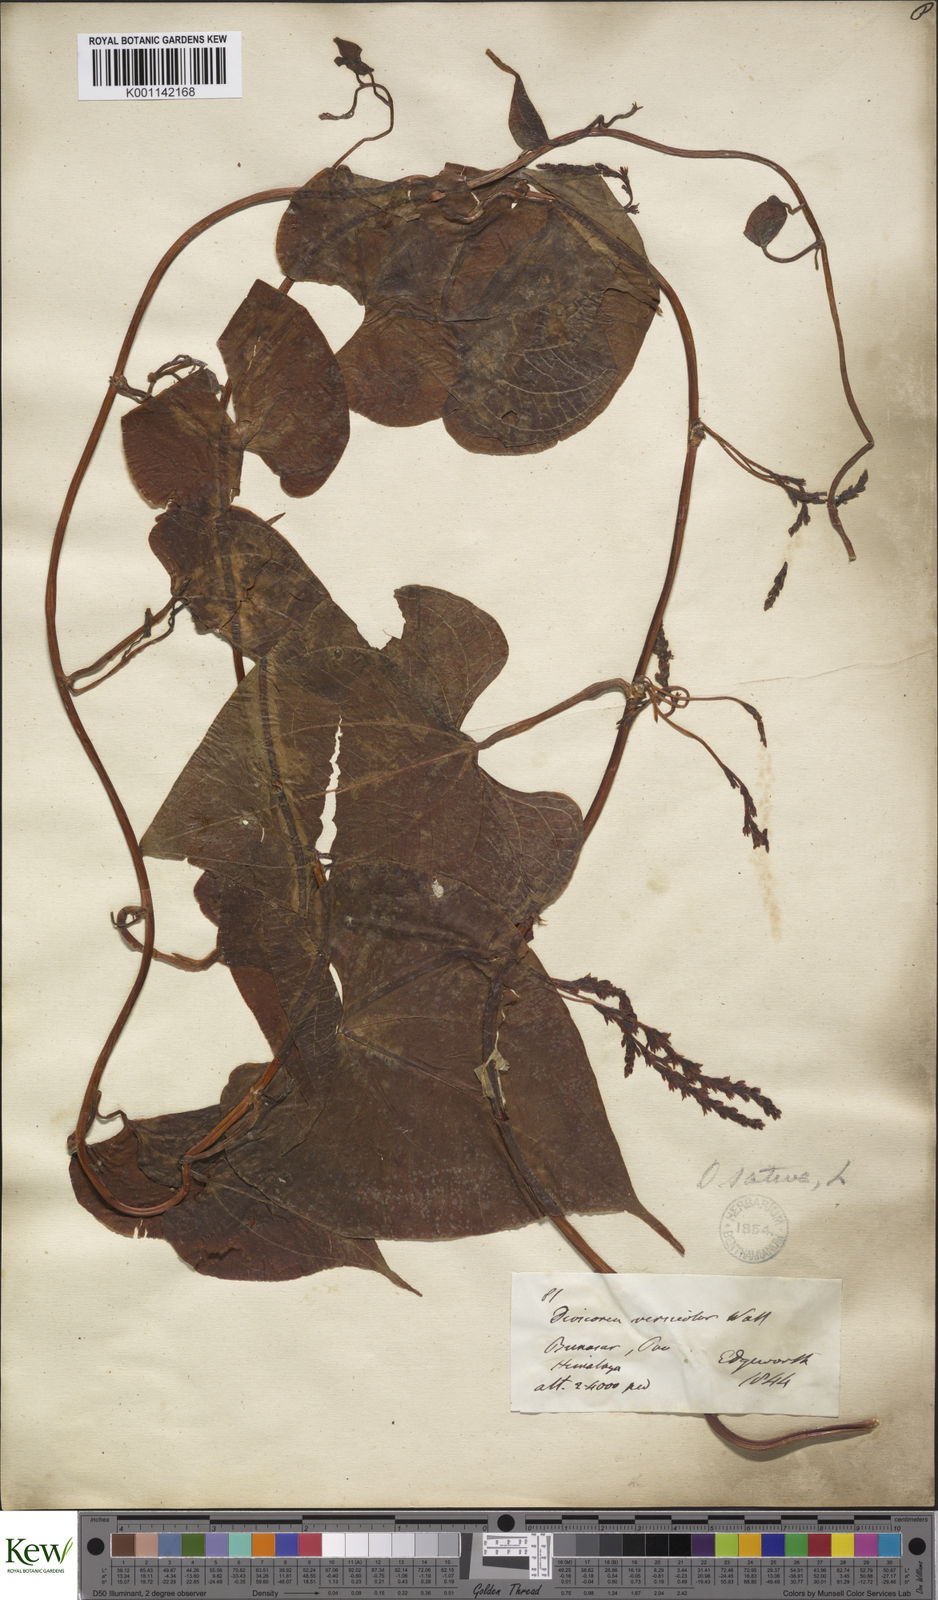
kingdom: Plantae
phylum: Tracheophyta
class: Liliopsida
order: Dioscoreales
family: Dioscoreaceae
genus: Dioscorea
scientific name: Dioscorea bulbifera
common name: Air yam
